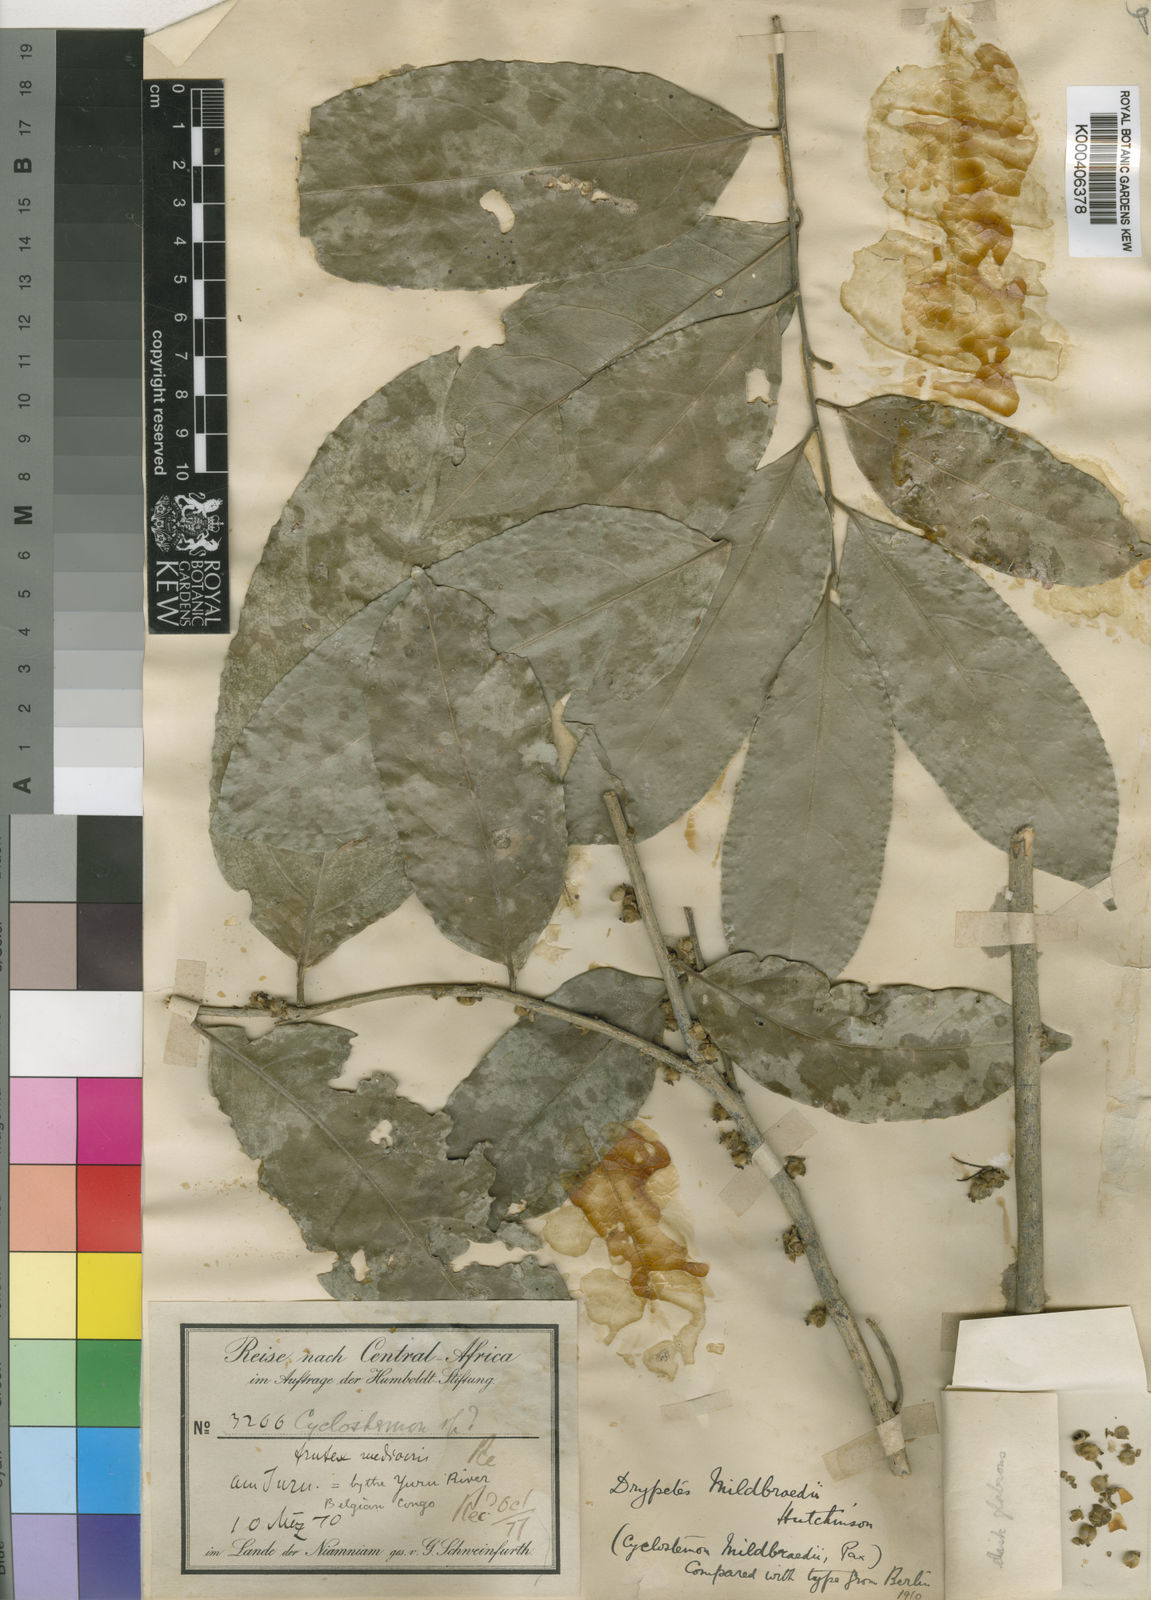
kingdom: Plantae
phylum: Tracheophyta
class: Magnoliopsida
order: Malpighiales
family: Putranjivaceae
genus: Drypetes
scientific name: Drypetes mildbraedii
